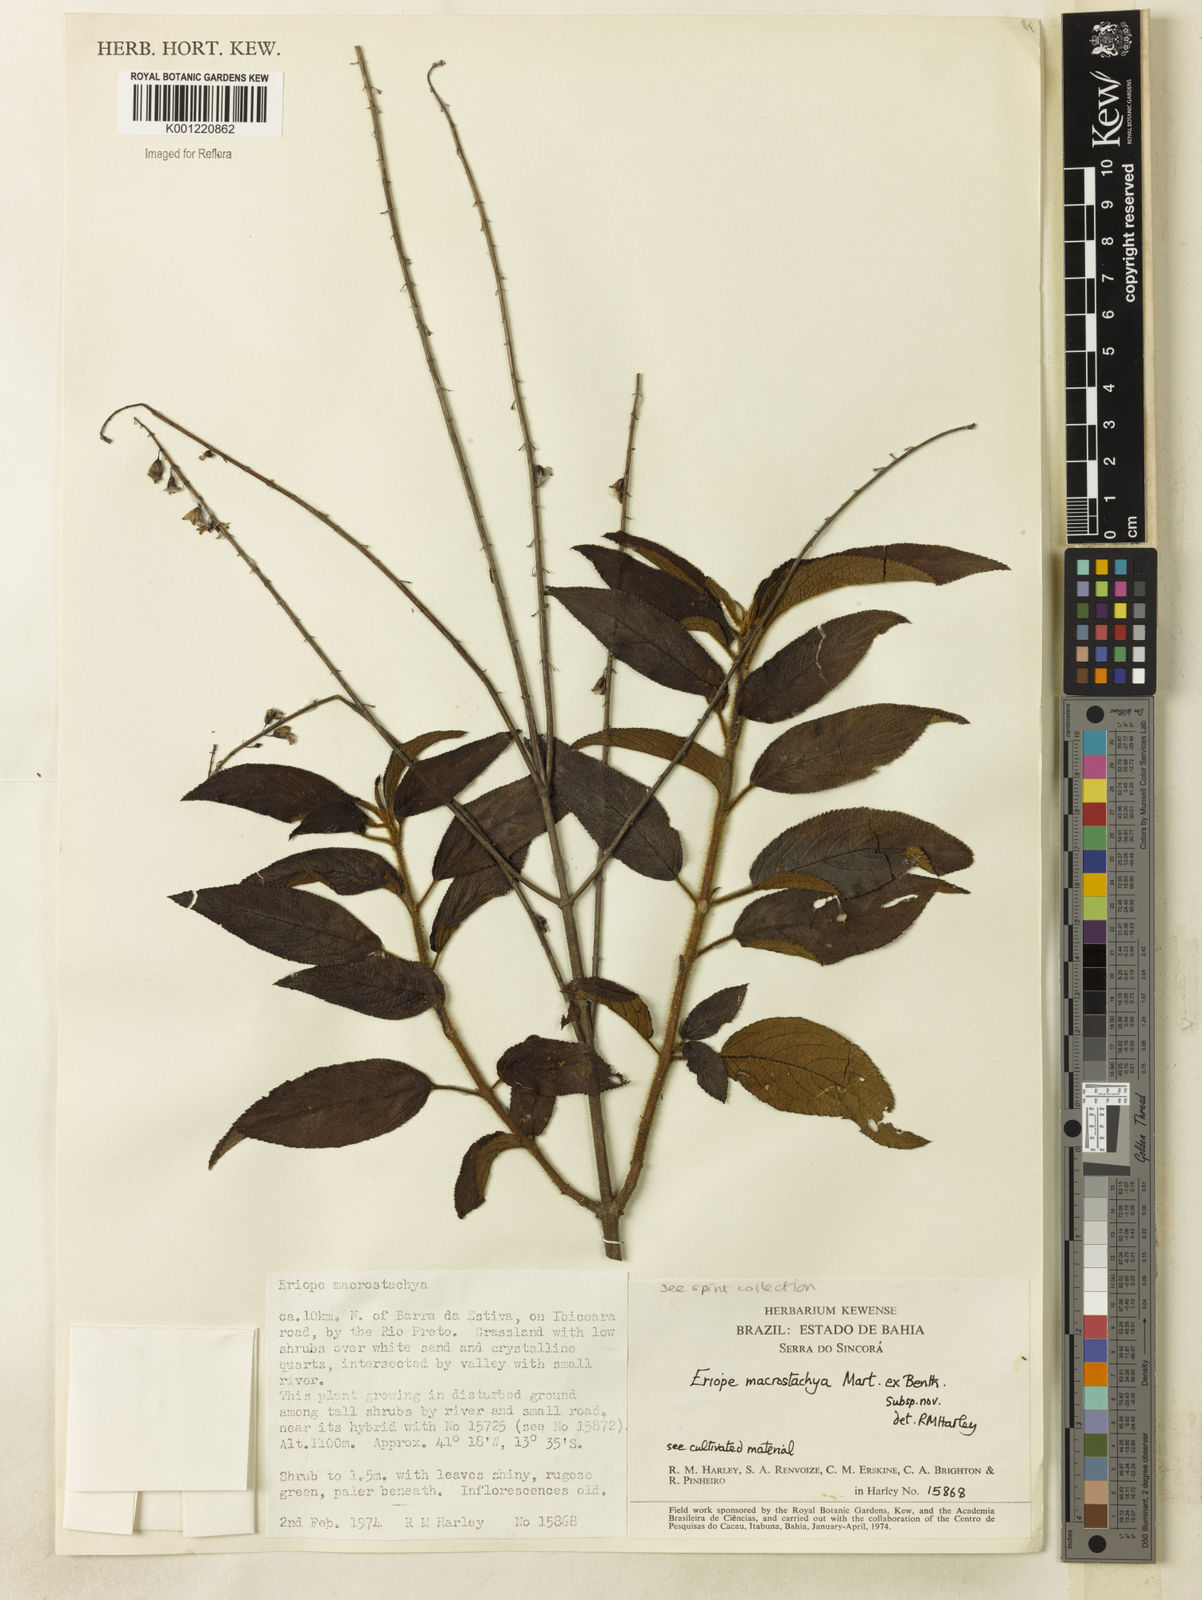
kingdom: Plantae
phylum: Tracheophyta
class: Magnoliopsida
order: Lamiales
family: Lamiaceae
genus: Eriope
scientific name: Eriope macrostachya
